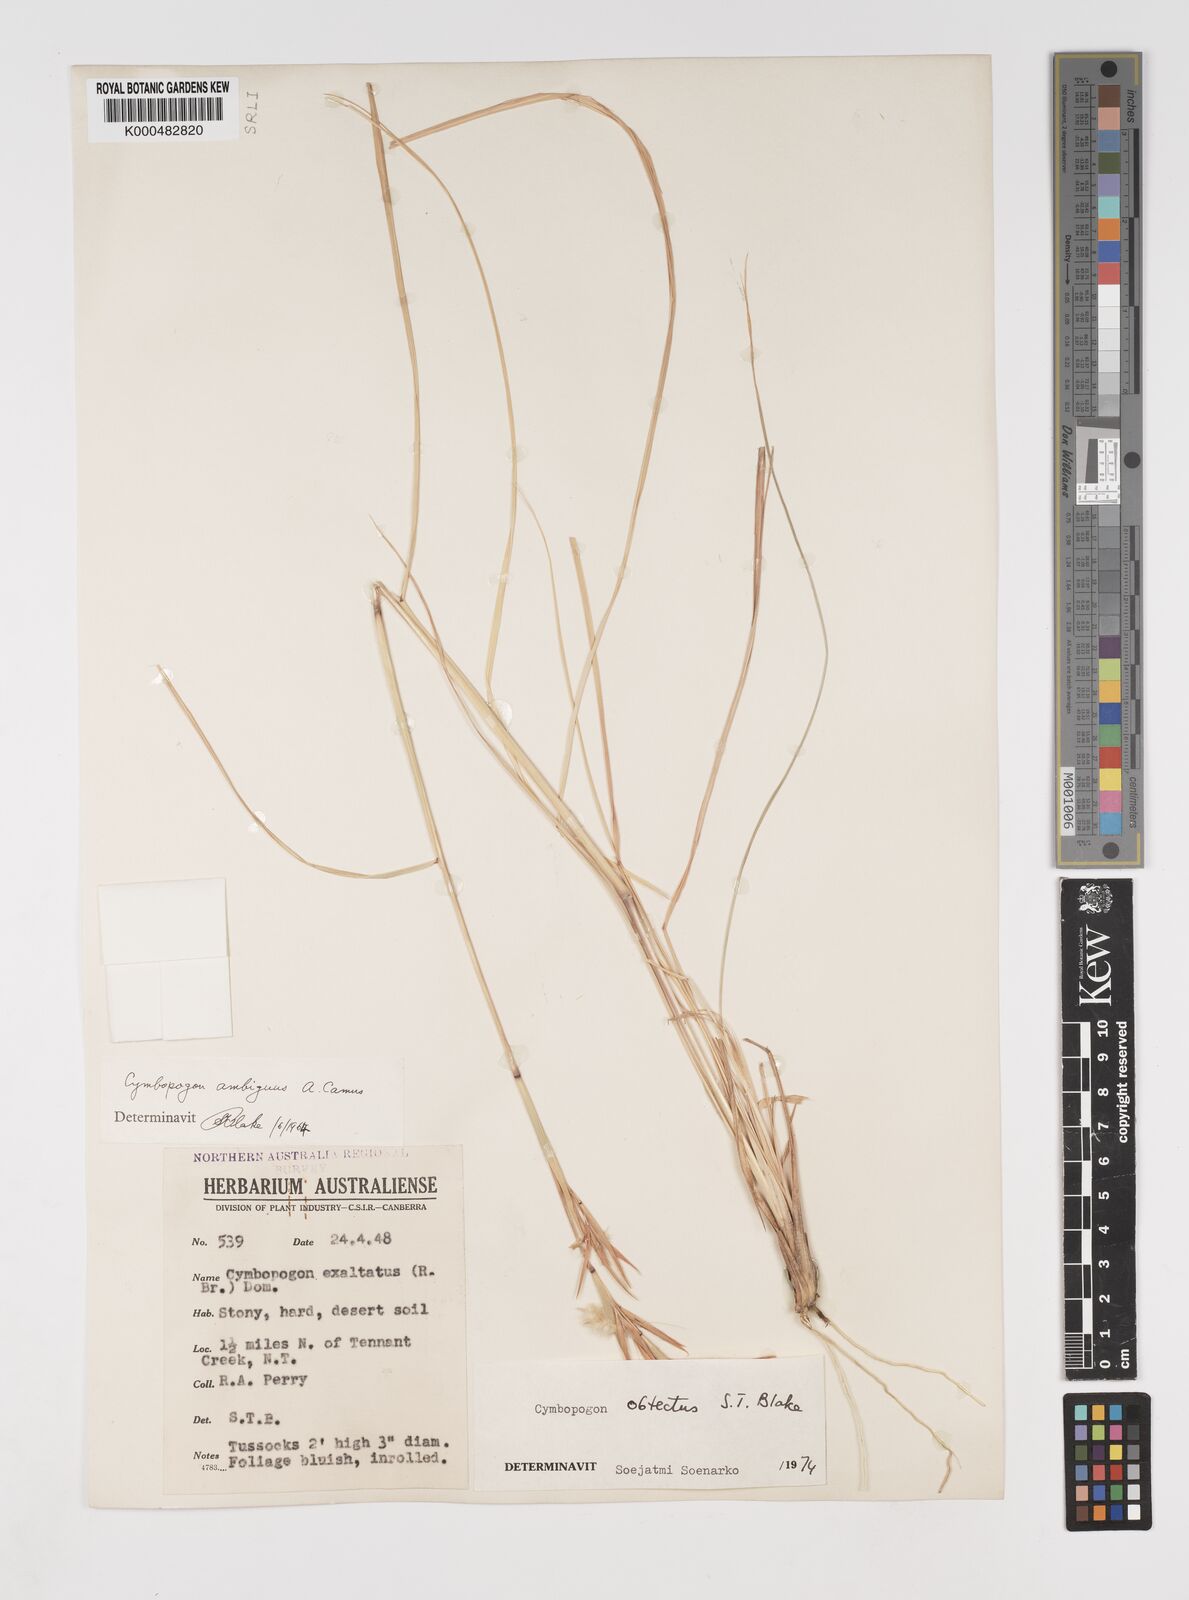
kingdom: Plantae
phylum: Tracheophyta
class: Liliopsida
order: Poales
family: Poaceae
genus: Cymbopogon
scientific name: Cymbopogon obtectus
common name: Silky heads
